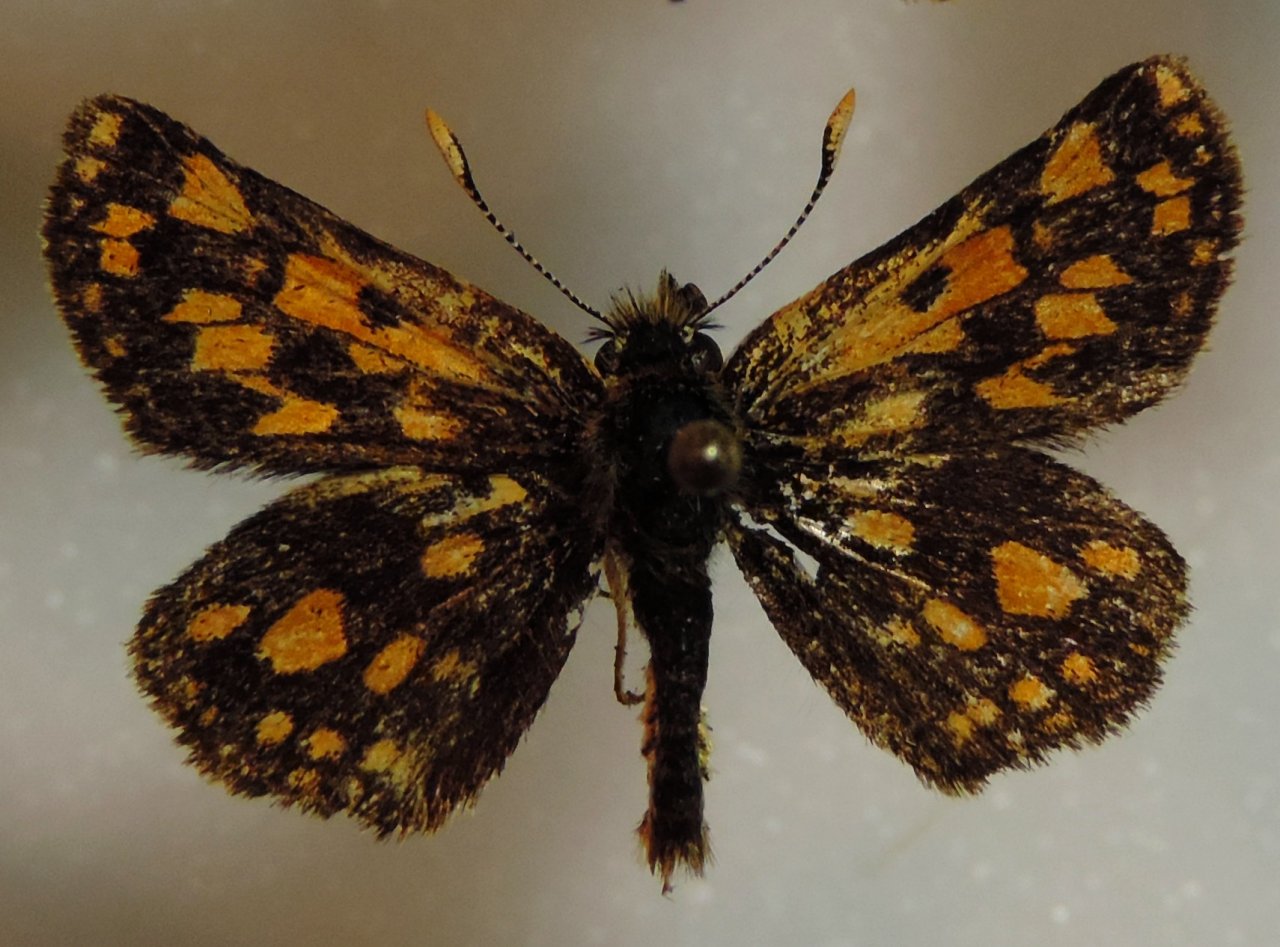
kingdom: Animalia
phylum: Arthropoda
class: Insecta
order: Lepidoptera
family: Hesperiidae
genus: Carterocephalus
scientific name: Carterocephalus palaemon
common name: Chequered Skipper
